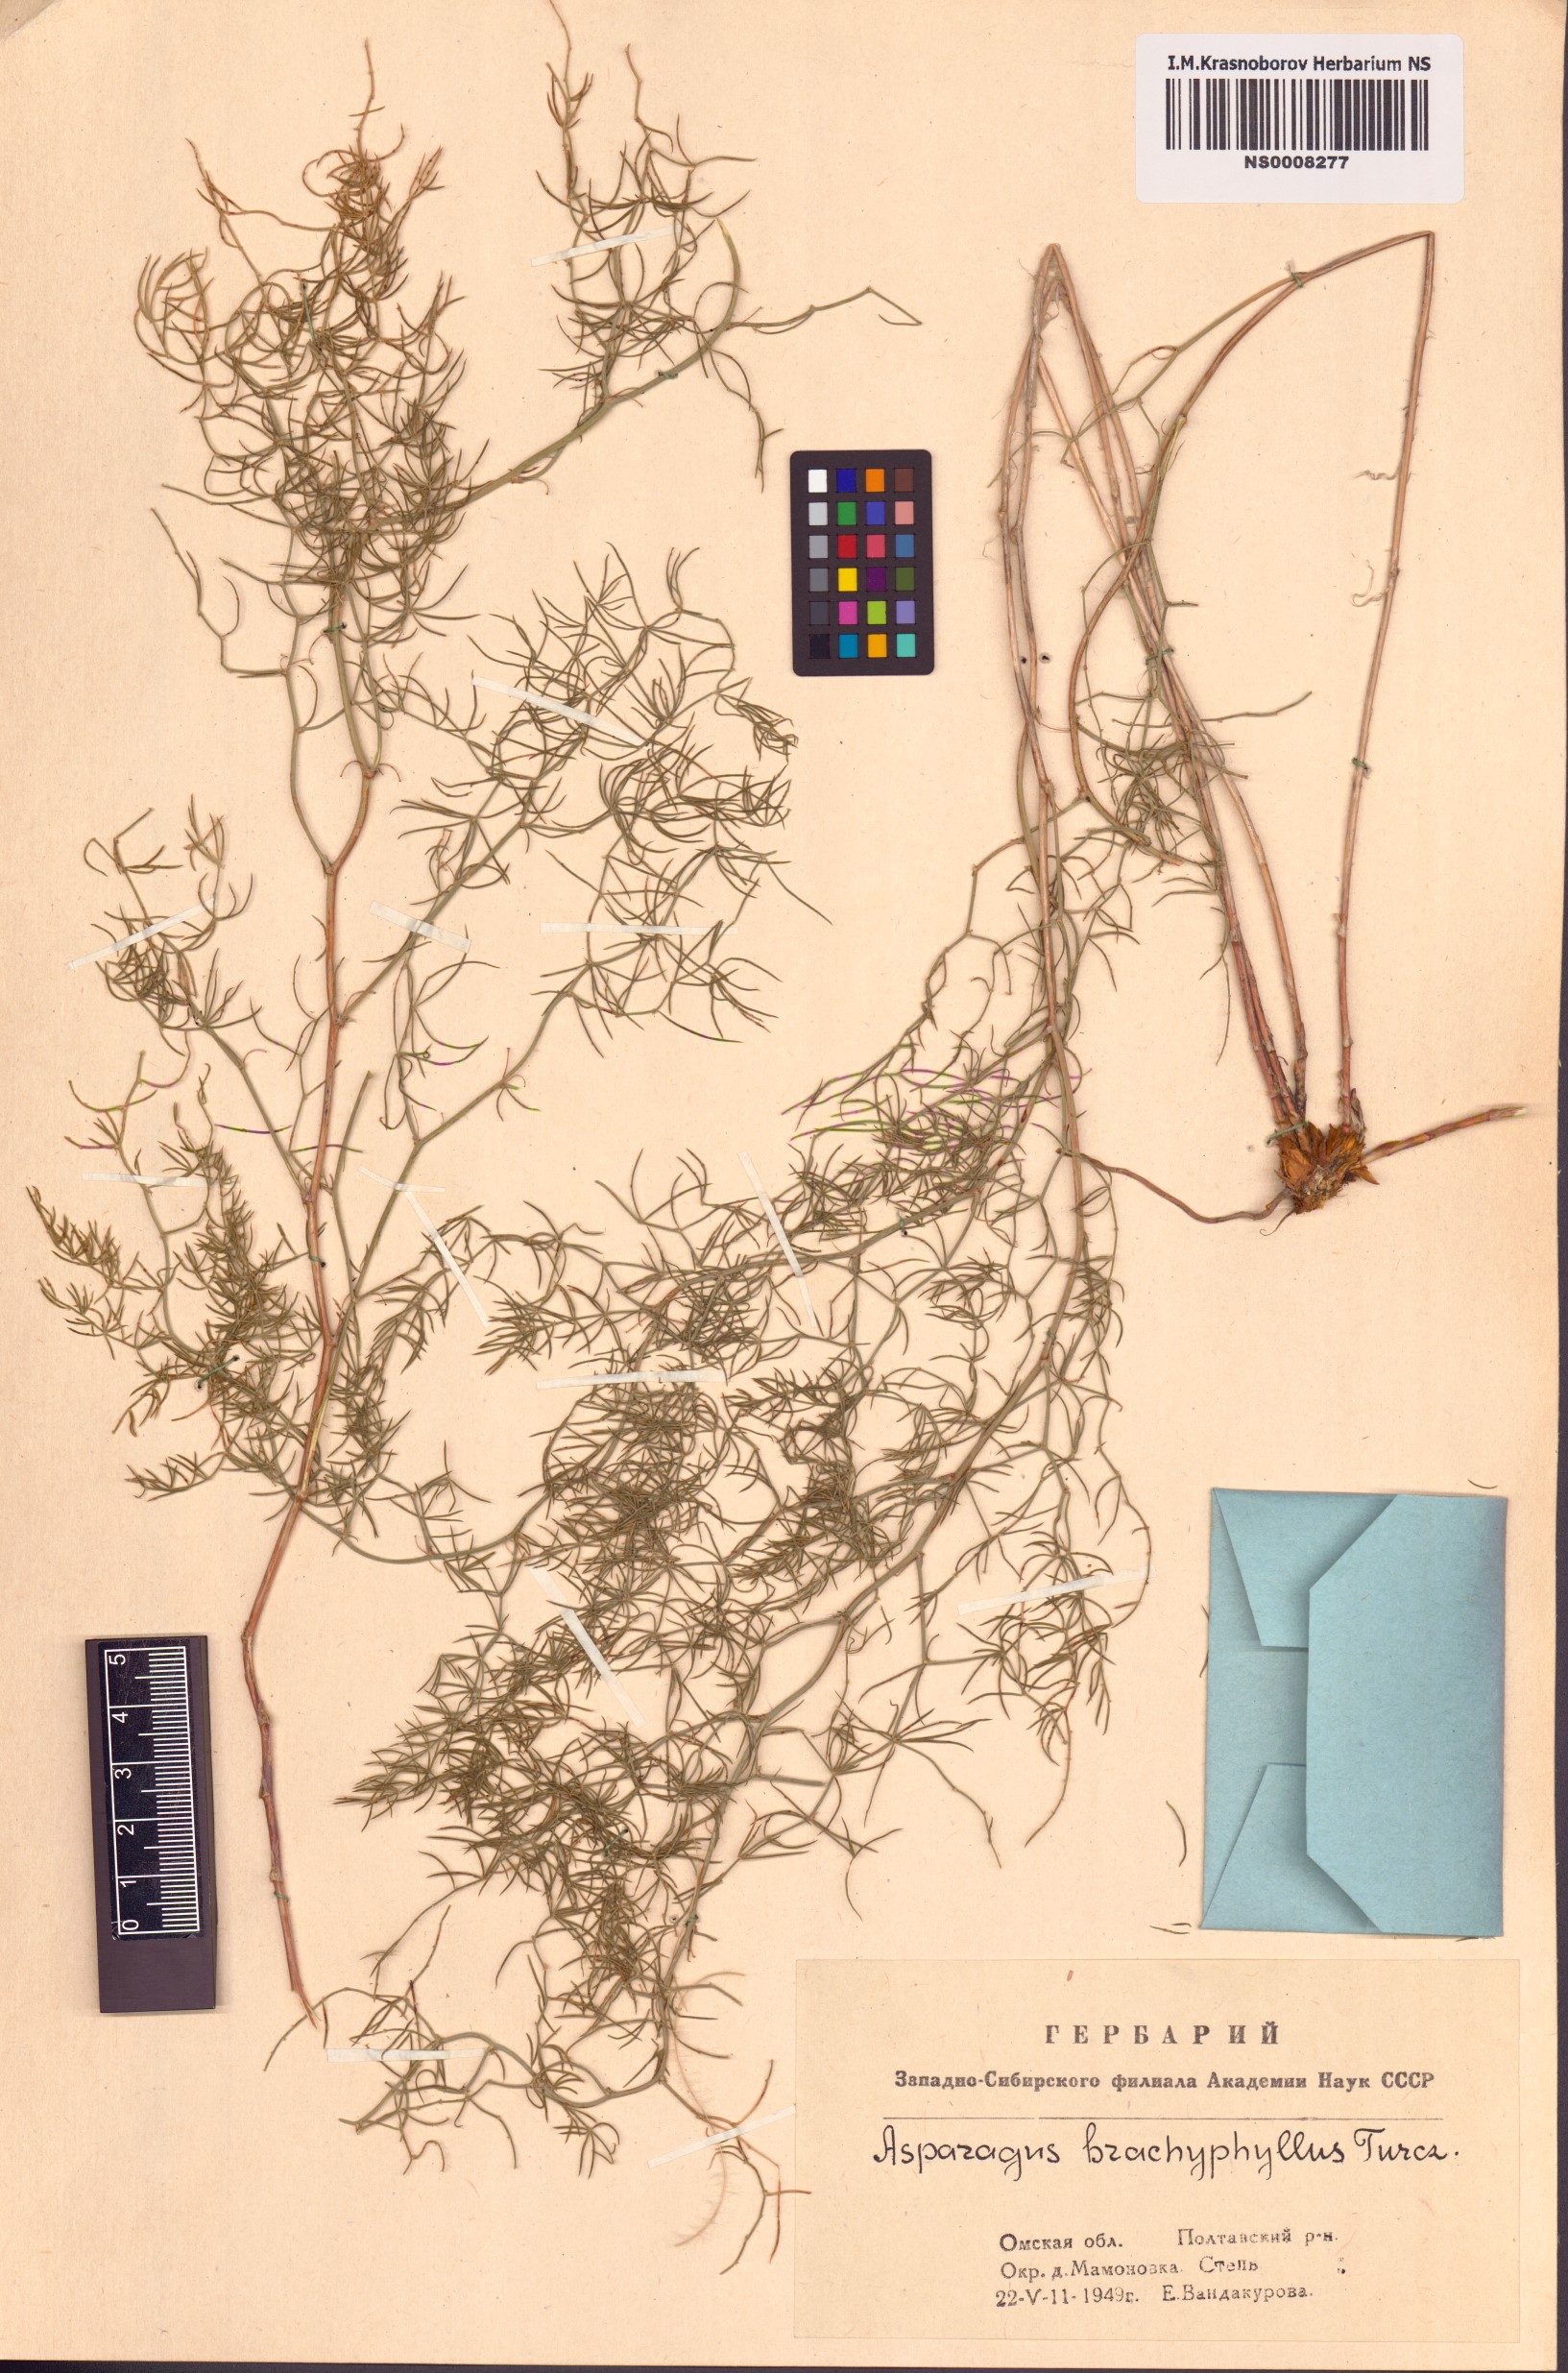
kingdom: Plantae
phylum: Tracheophyta
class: Liliopsida
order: Asparagales
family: Asparagaceae
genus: Asparagus
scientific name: Asparagus brachyphyllus
